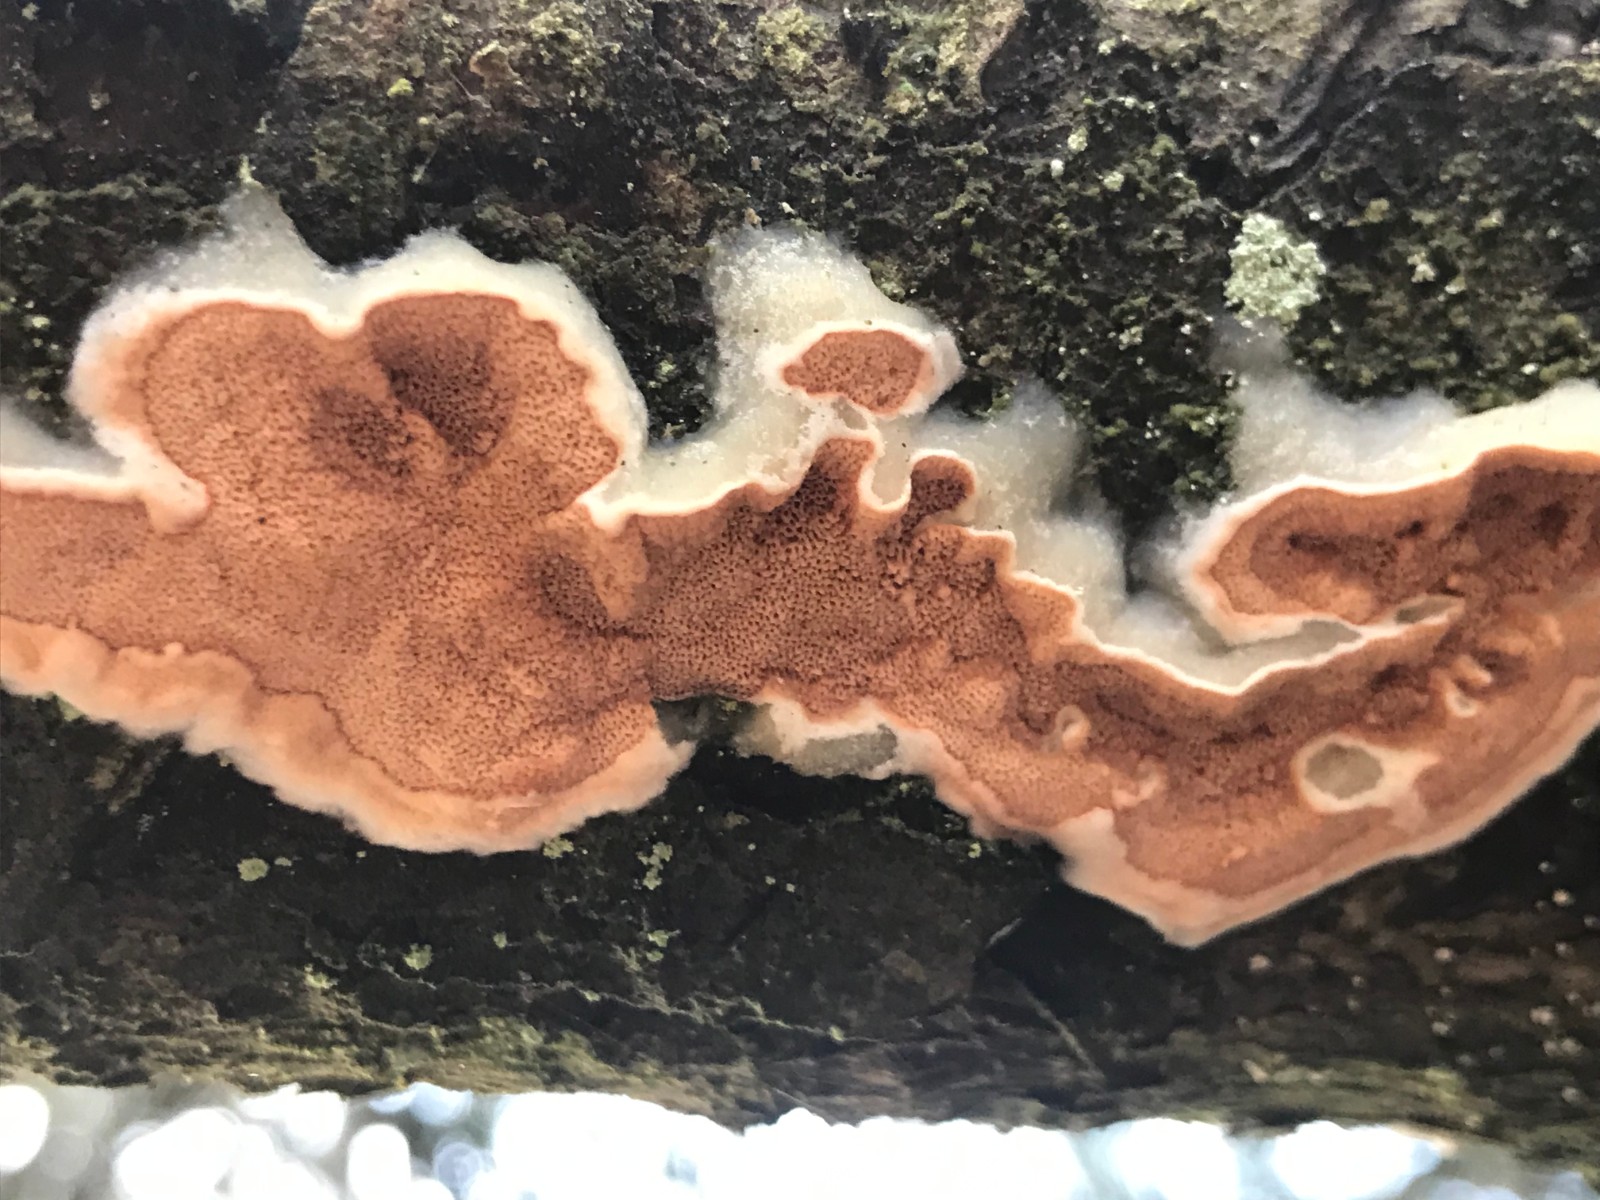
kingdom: Fungi
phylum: Basidiomycota
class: Agaricomycetes
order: Polyporales
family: Irpicaceae
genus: Meruliopsis
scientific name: Meruliopsis taxicola
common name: purpurbrun foldporesvamp
